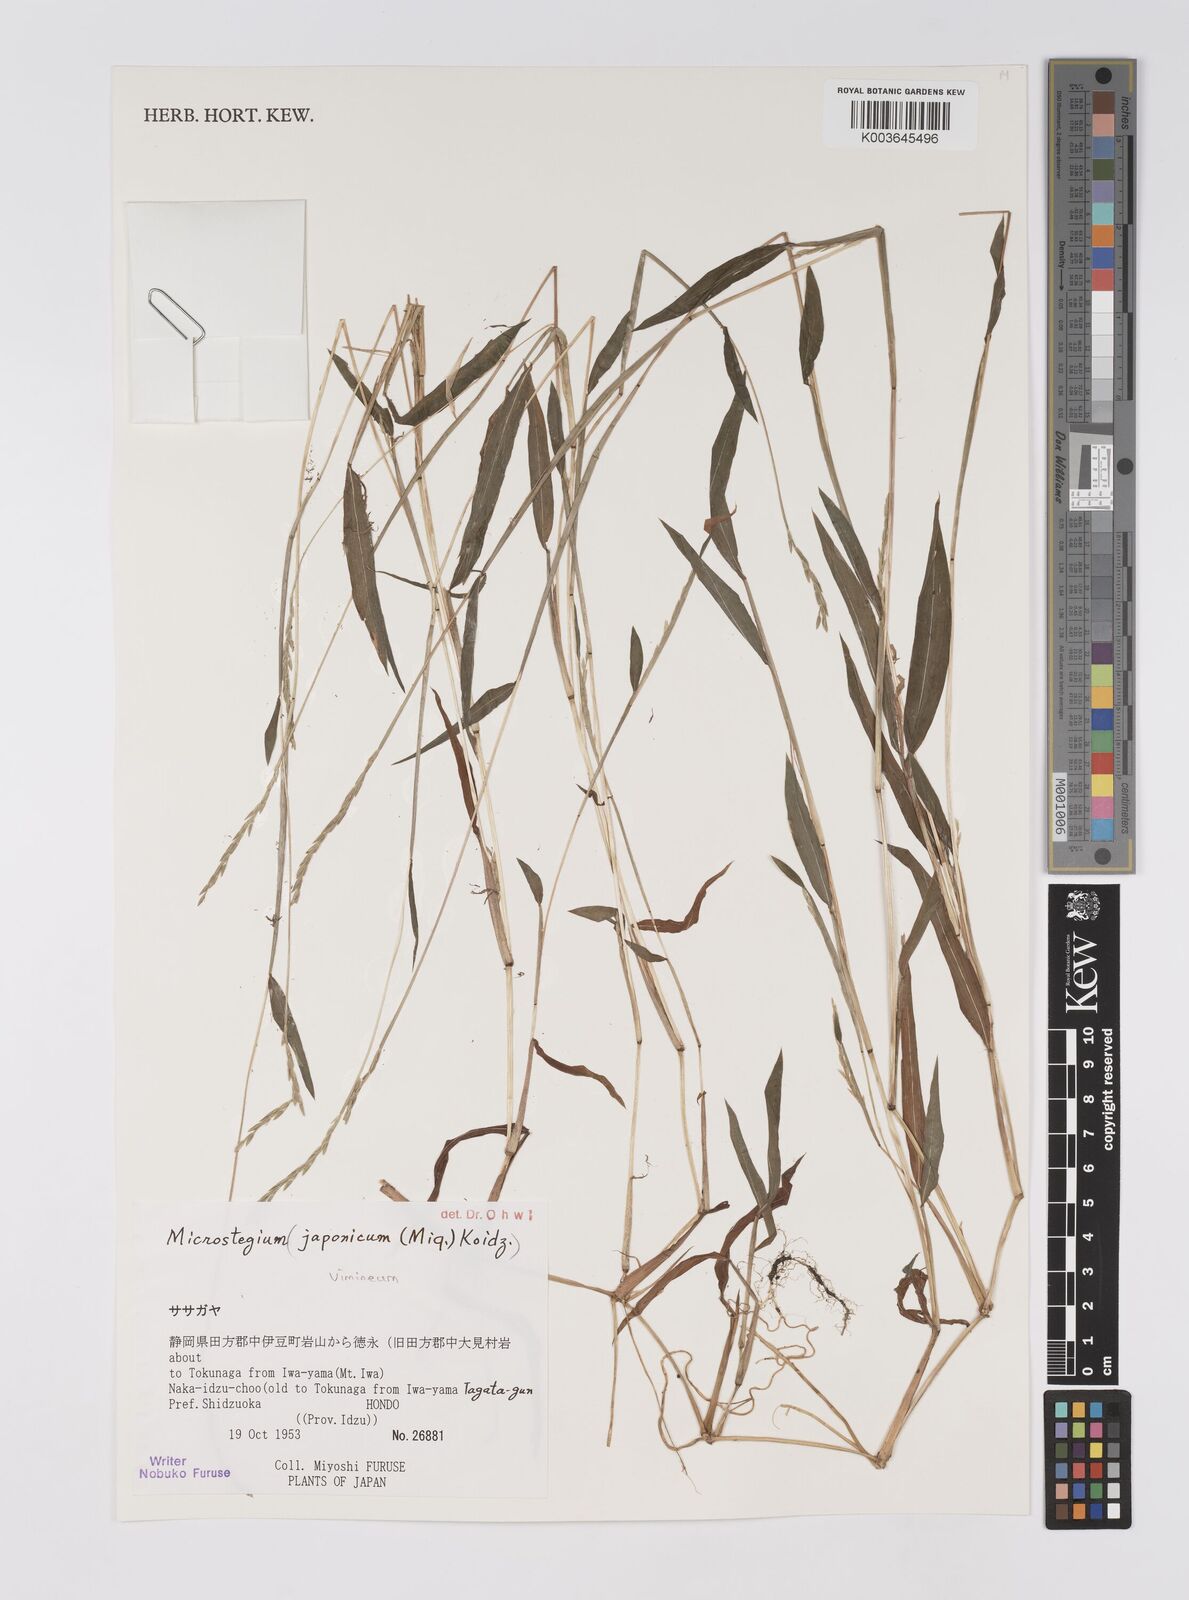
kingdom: Plantae
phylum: Tracheophyta
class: Liliopsida
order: Poales
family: Poaceae
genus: Microstegium
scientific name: Microstegium vimineum
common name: Japanese stiltgrass
